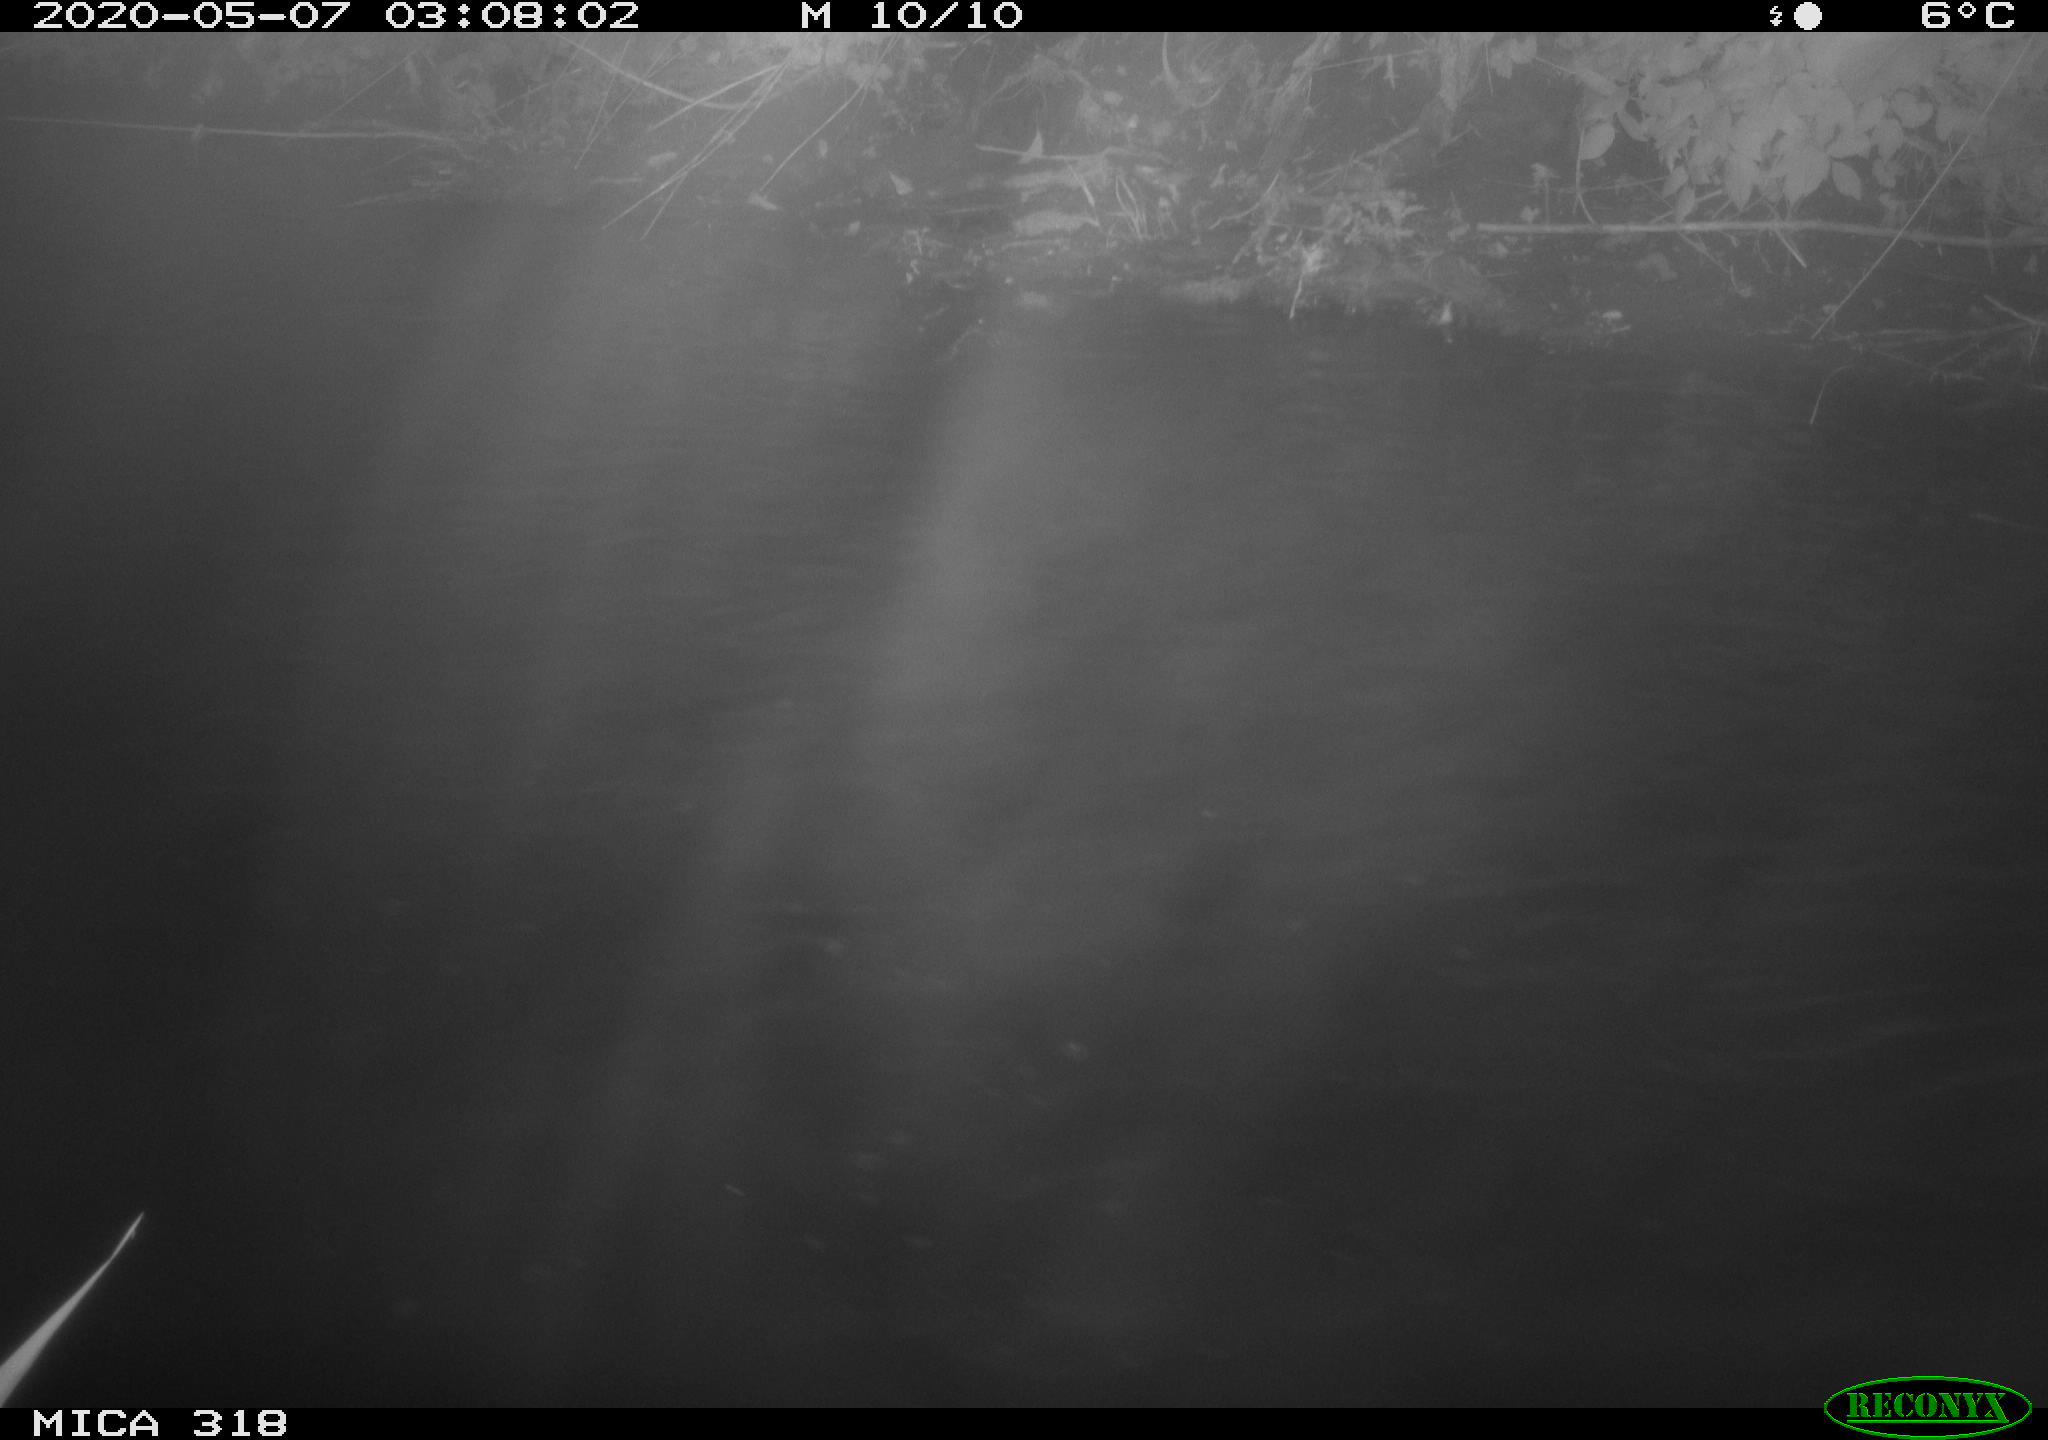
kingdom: Animalia
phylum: Chordata
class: Aves
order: Pelecaniformes
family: Ardeidae
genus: Ardea
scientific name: Ardea cinerea
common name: Grey heron
